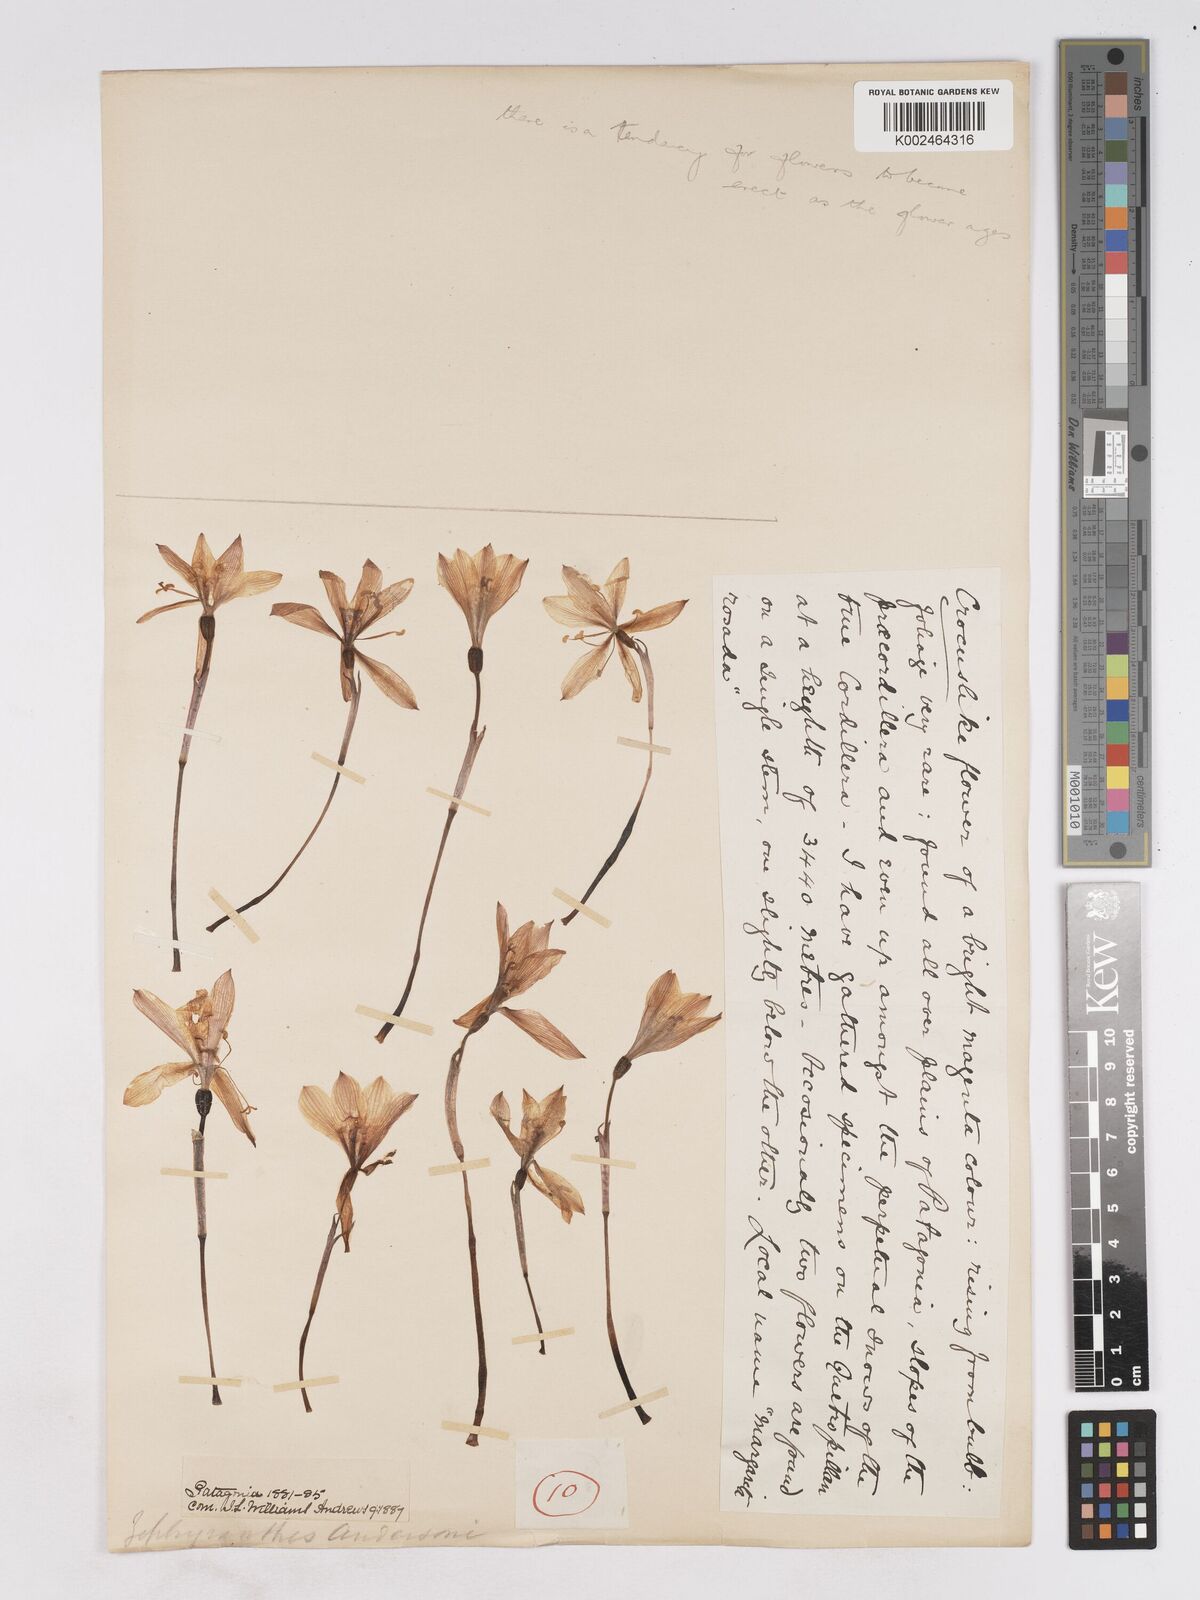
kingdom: Plantae
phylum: Tracheophyta
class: Liliopsida
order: Asparagales
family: Amaryllidaceae
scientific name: Amaryllidaceae
